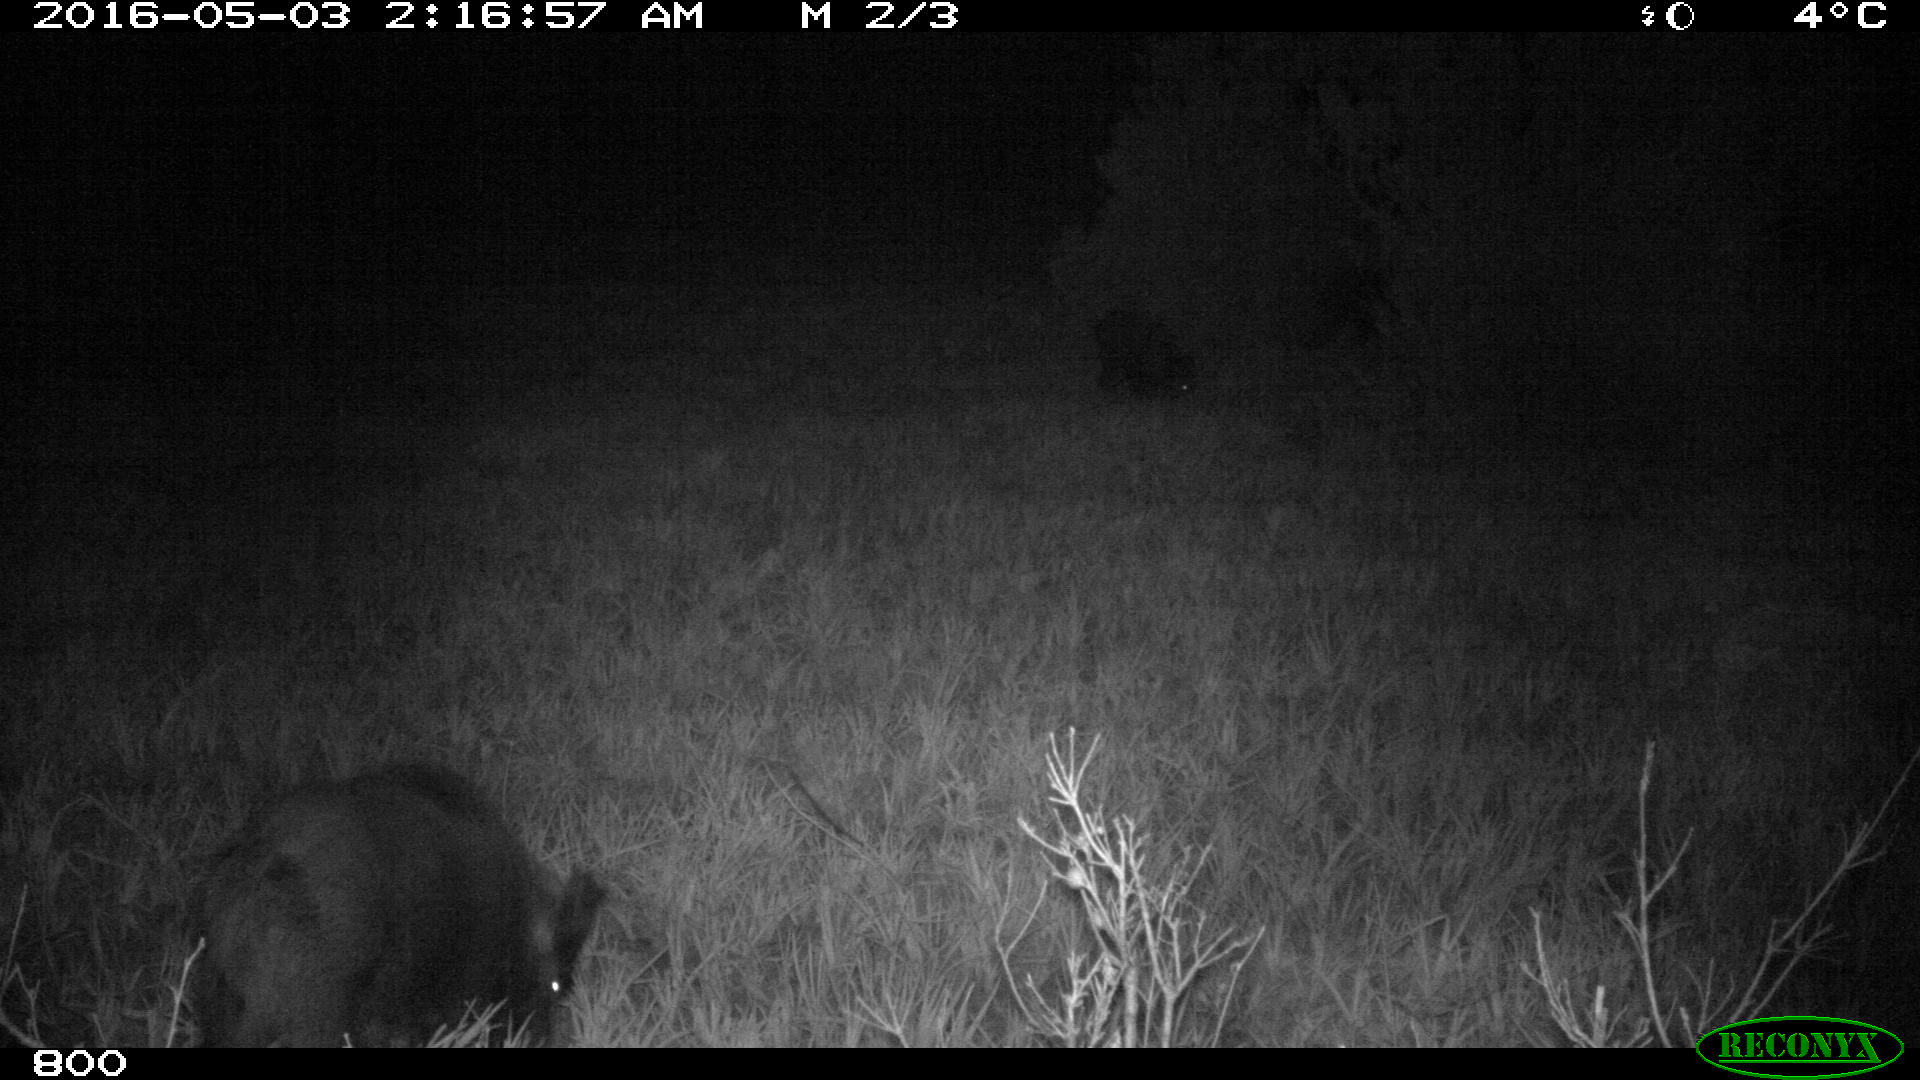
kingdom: Animalia
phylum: Chordata
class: Mammalia
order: Artiodactyla
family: Suidae
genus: Sus
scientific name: Sus scrofa
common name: Wild boar
